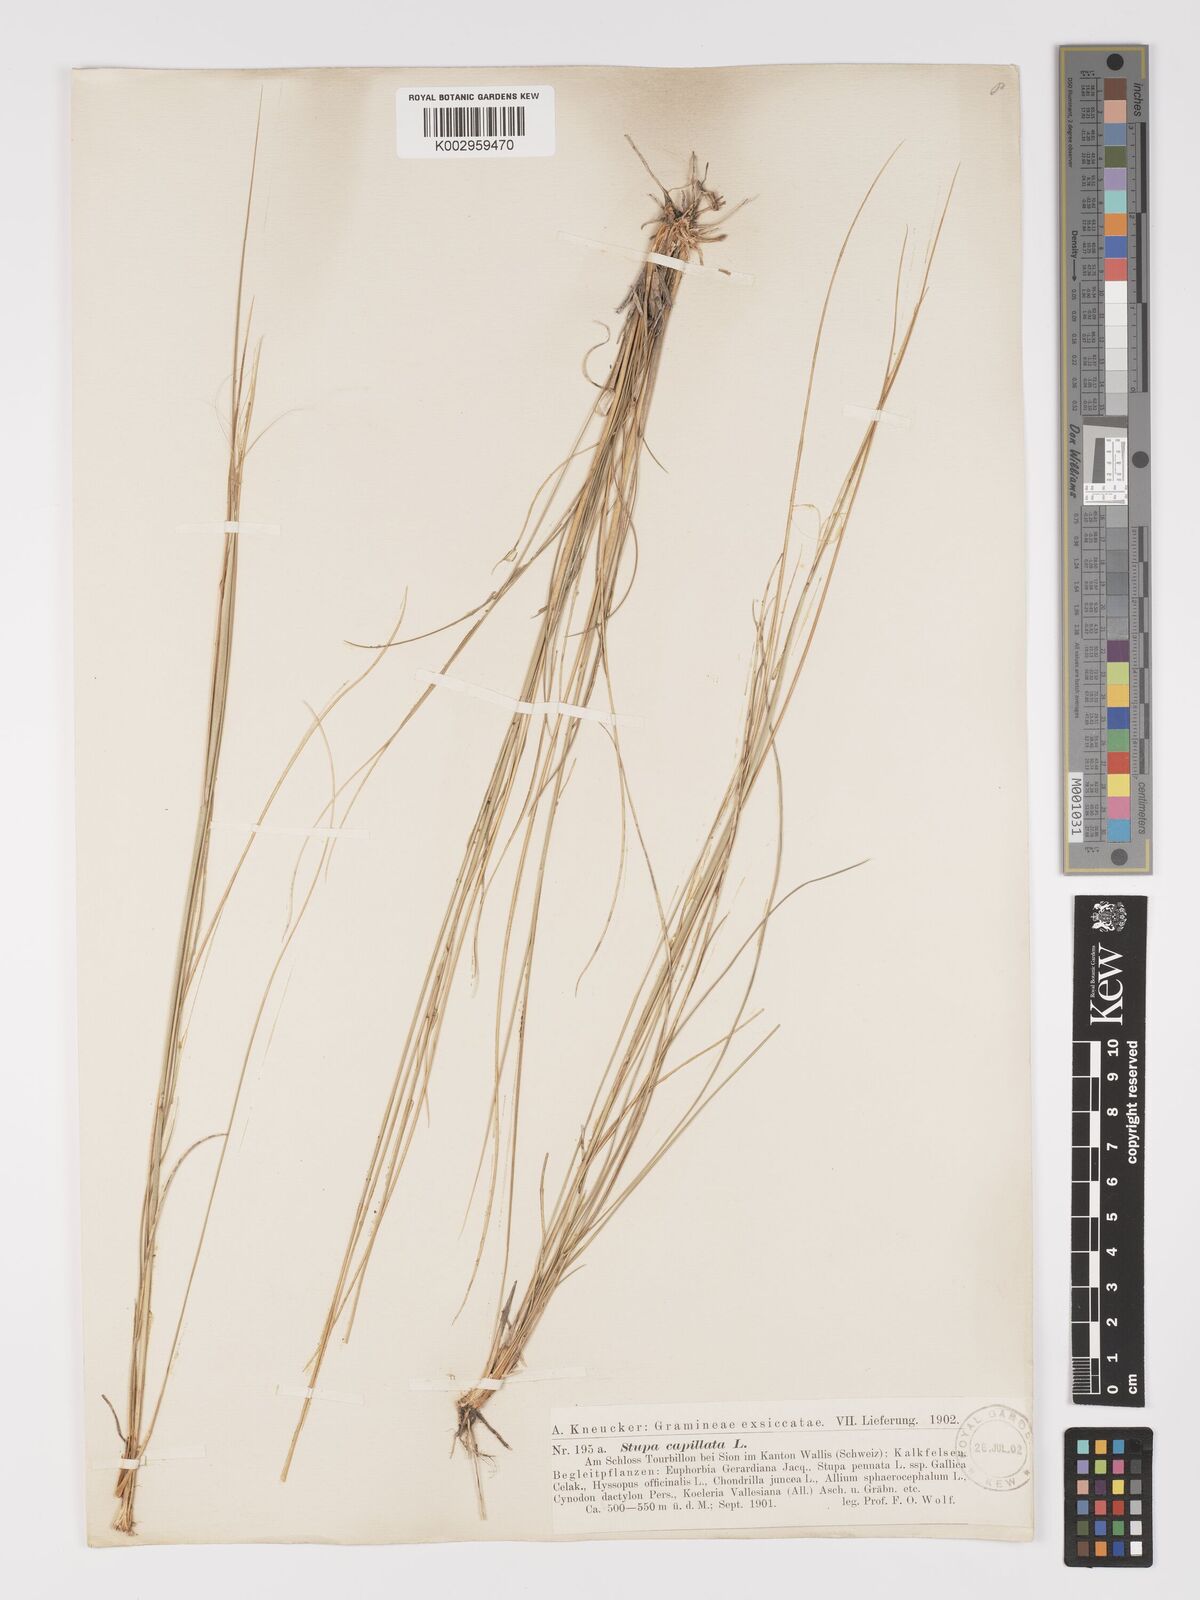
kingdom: Plantae
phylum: Tracheophyta
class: Liliopsida
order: Poales
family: Poaceae
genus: Stipa
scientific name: Stipa capillata
